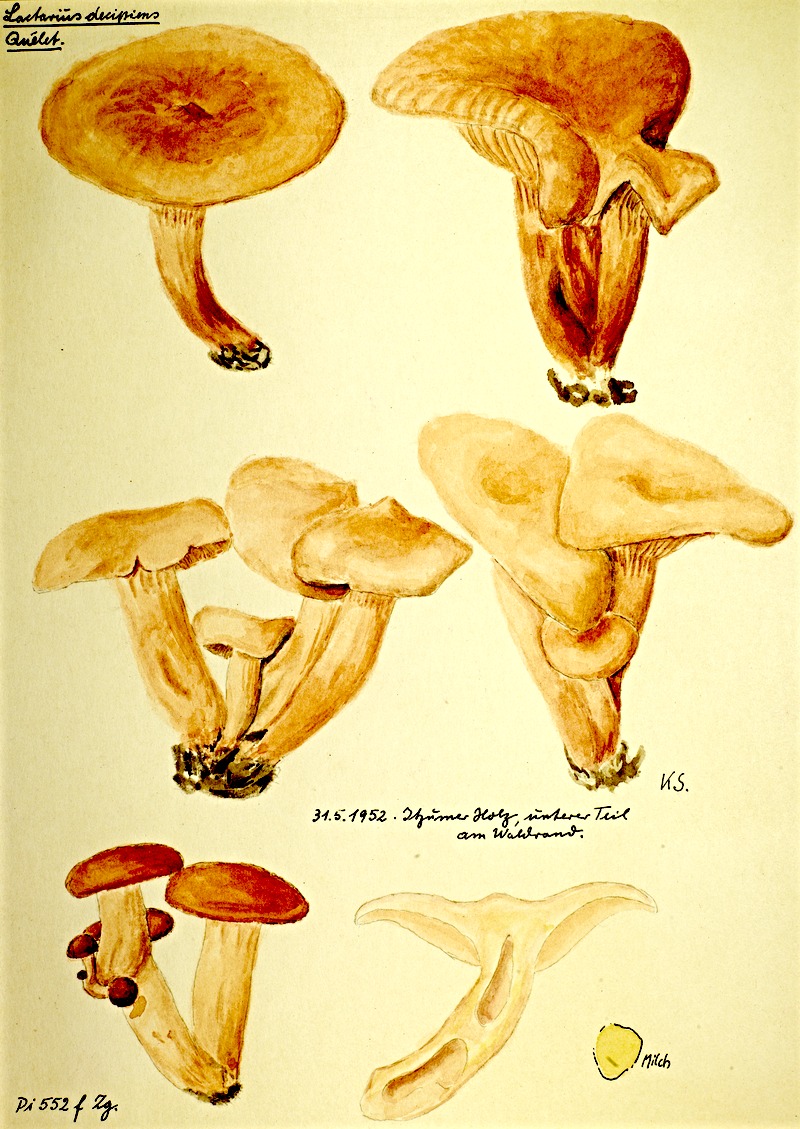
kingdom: Fungi
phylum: Basidiomycota
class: Agaricomycetes
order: Russulales
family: Russulaceae
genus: Lactarius
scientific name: Lactarius decipiens
